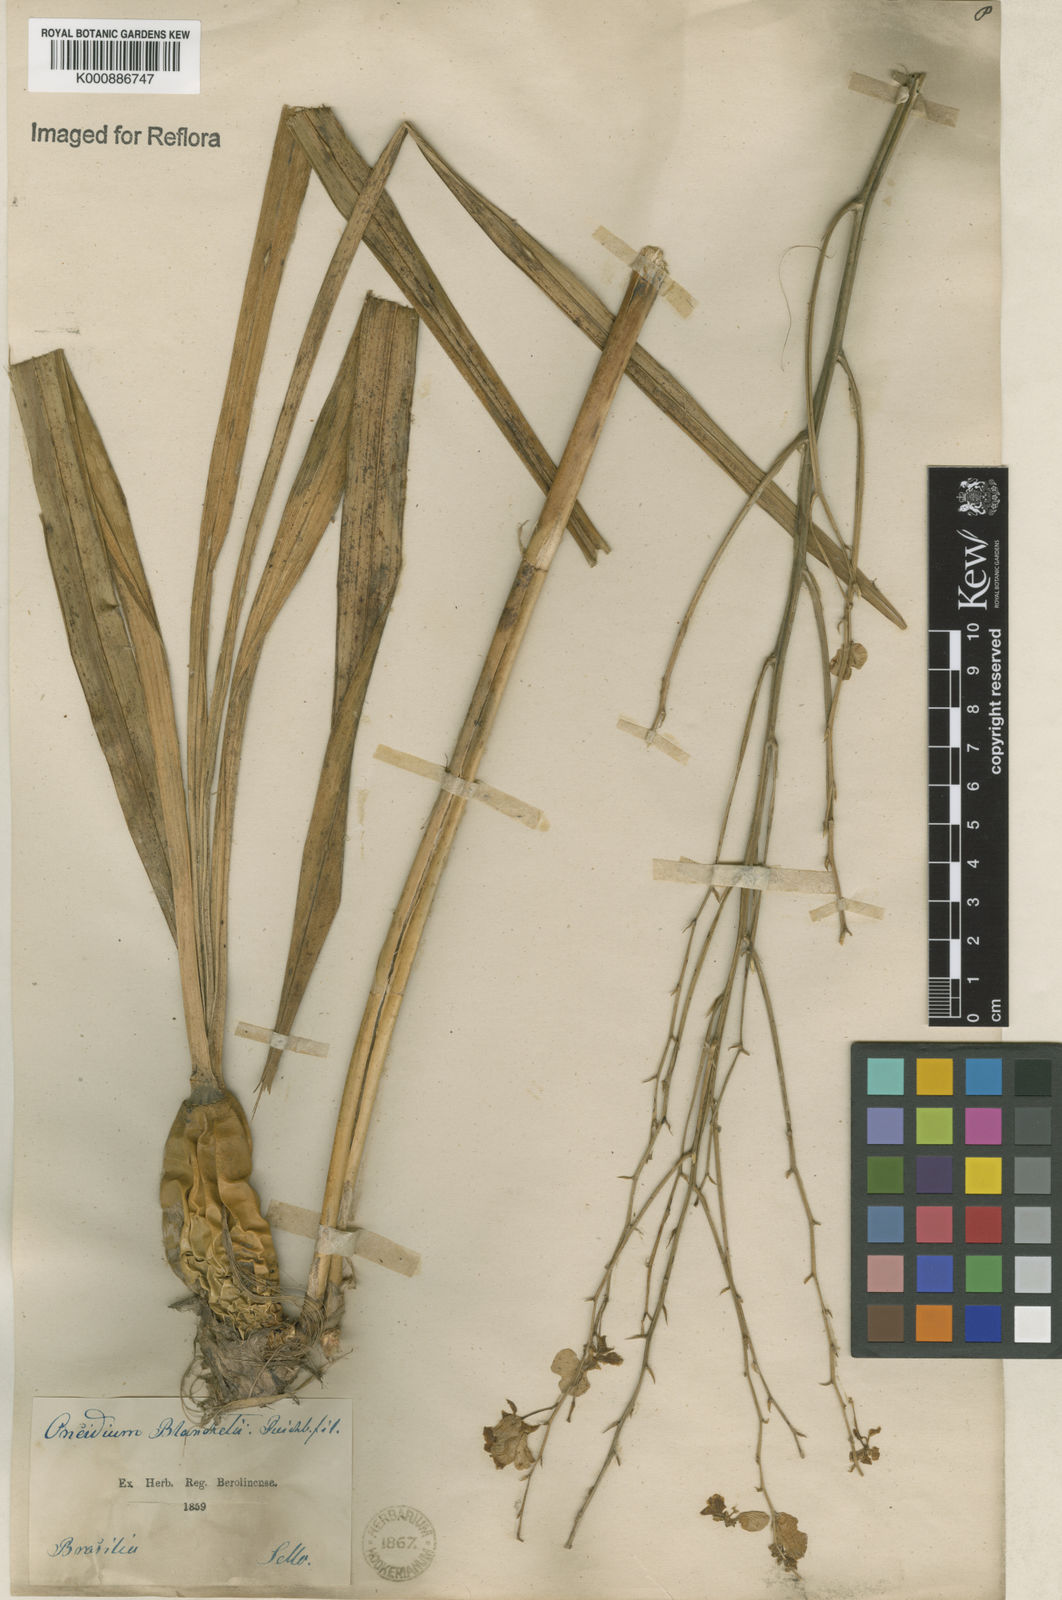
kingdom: Plantae
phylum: Tracheophyta
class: Liliopsida
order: Asparagales
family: Orchidaceae
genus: Gomesa
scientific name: Gomesa ramosa
